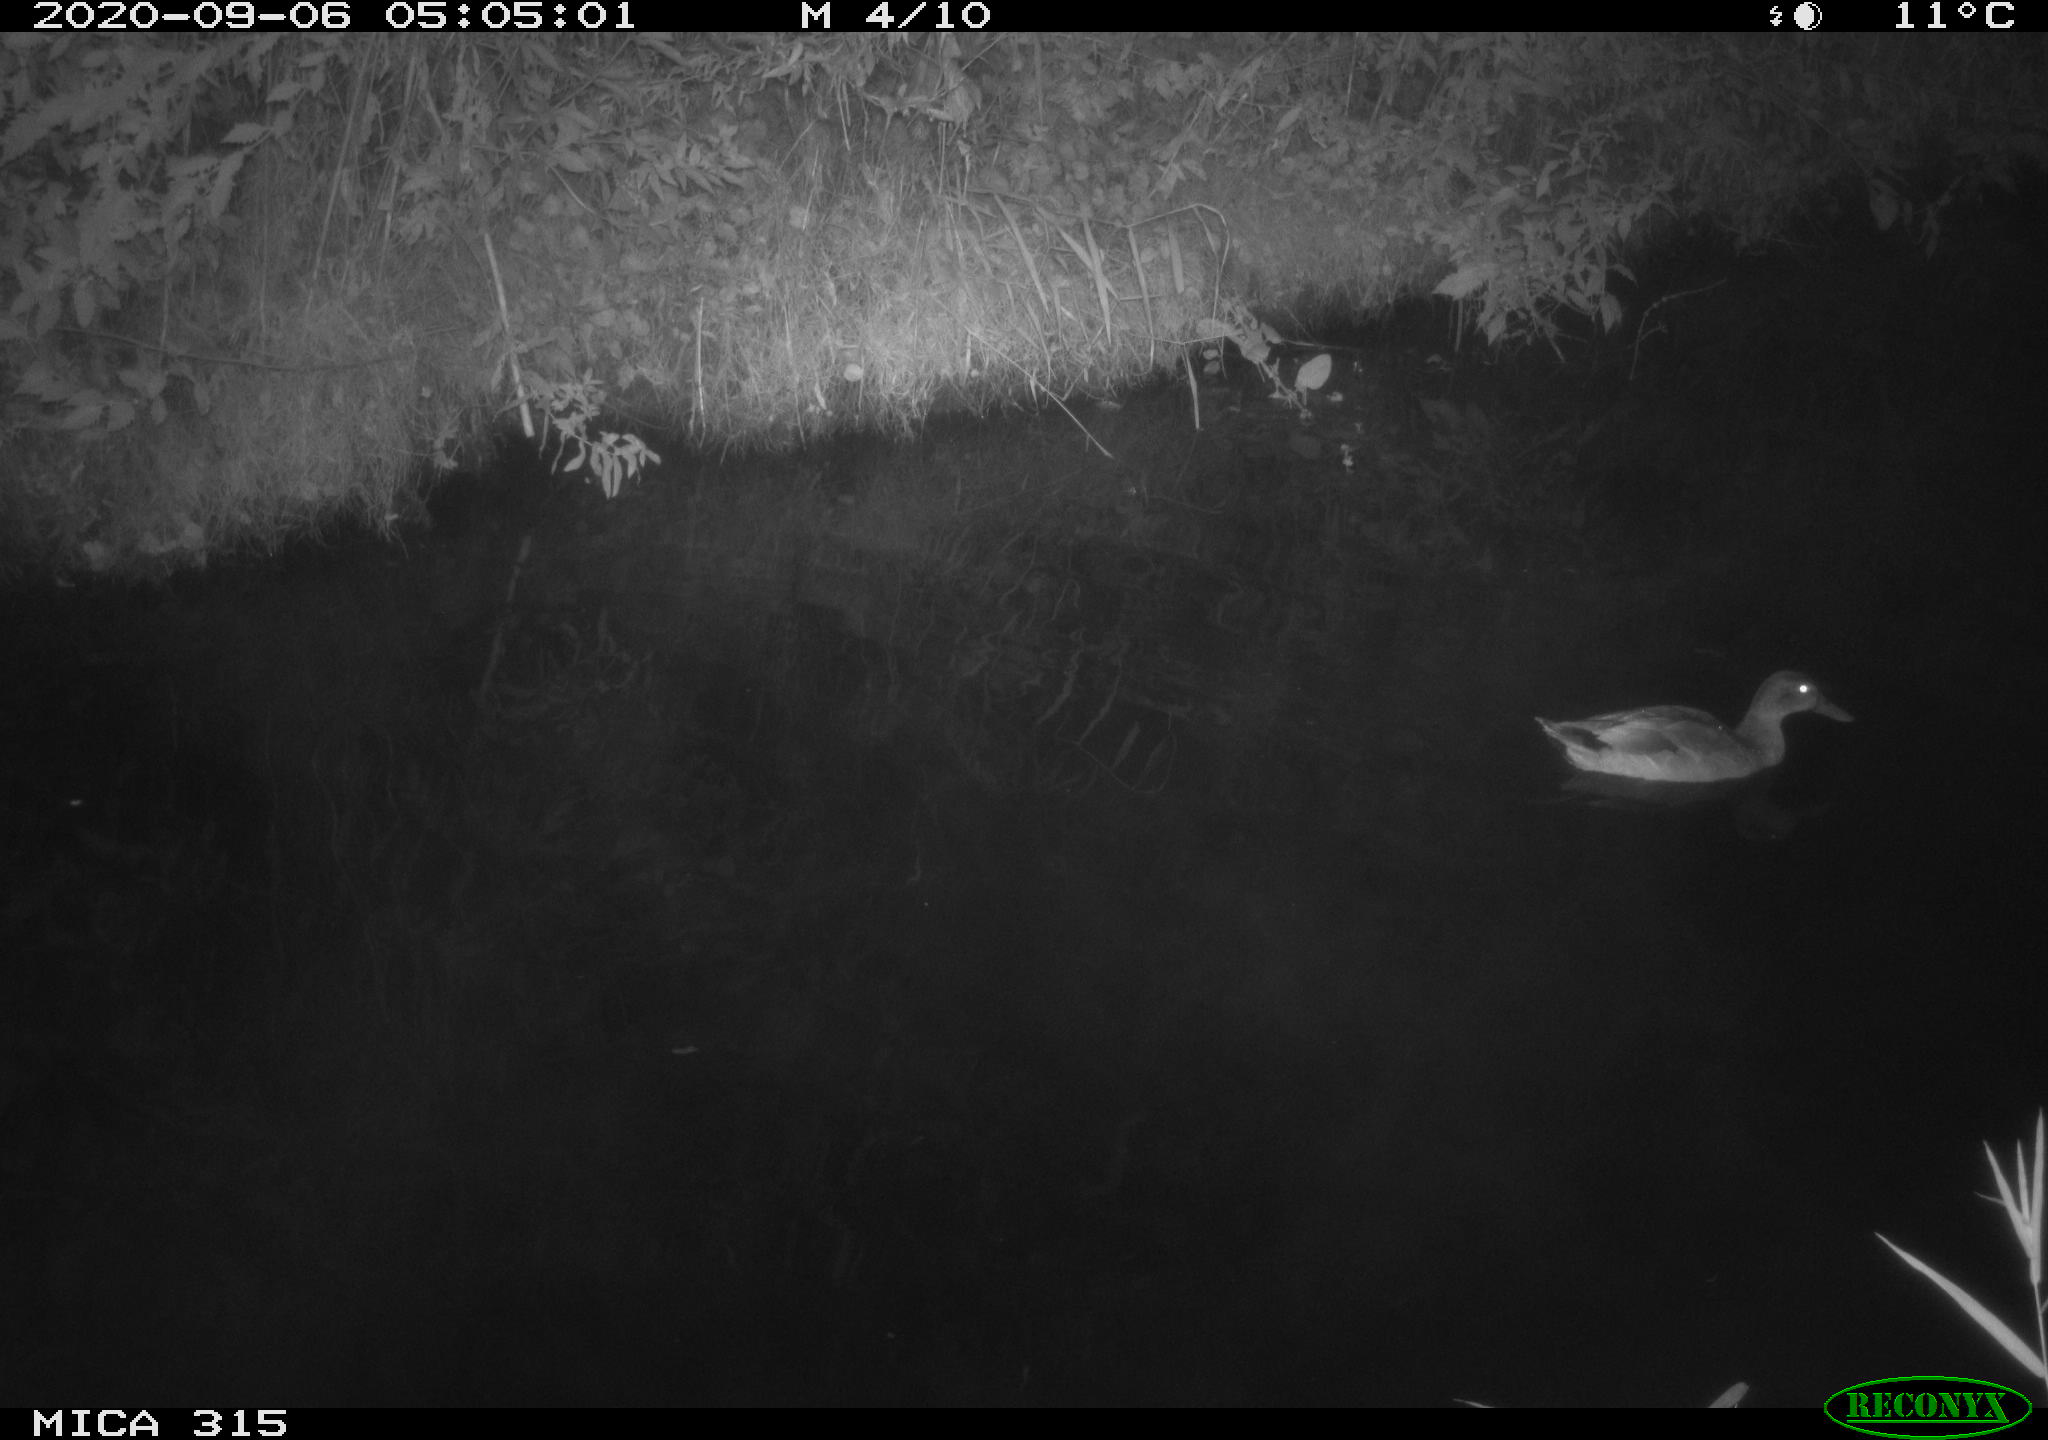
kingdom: Animalia
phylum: Chordata
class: Aves
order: Anseriformes
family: Anatidae
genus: Anas
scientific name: Anas platyrhynchos
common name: Mallard
